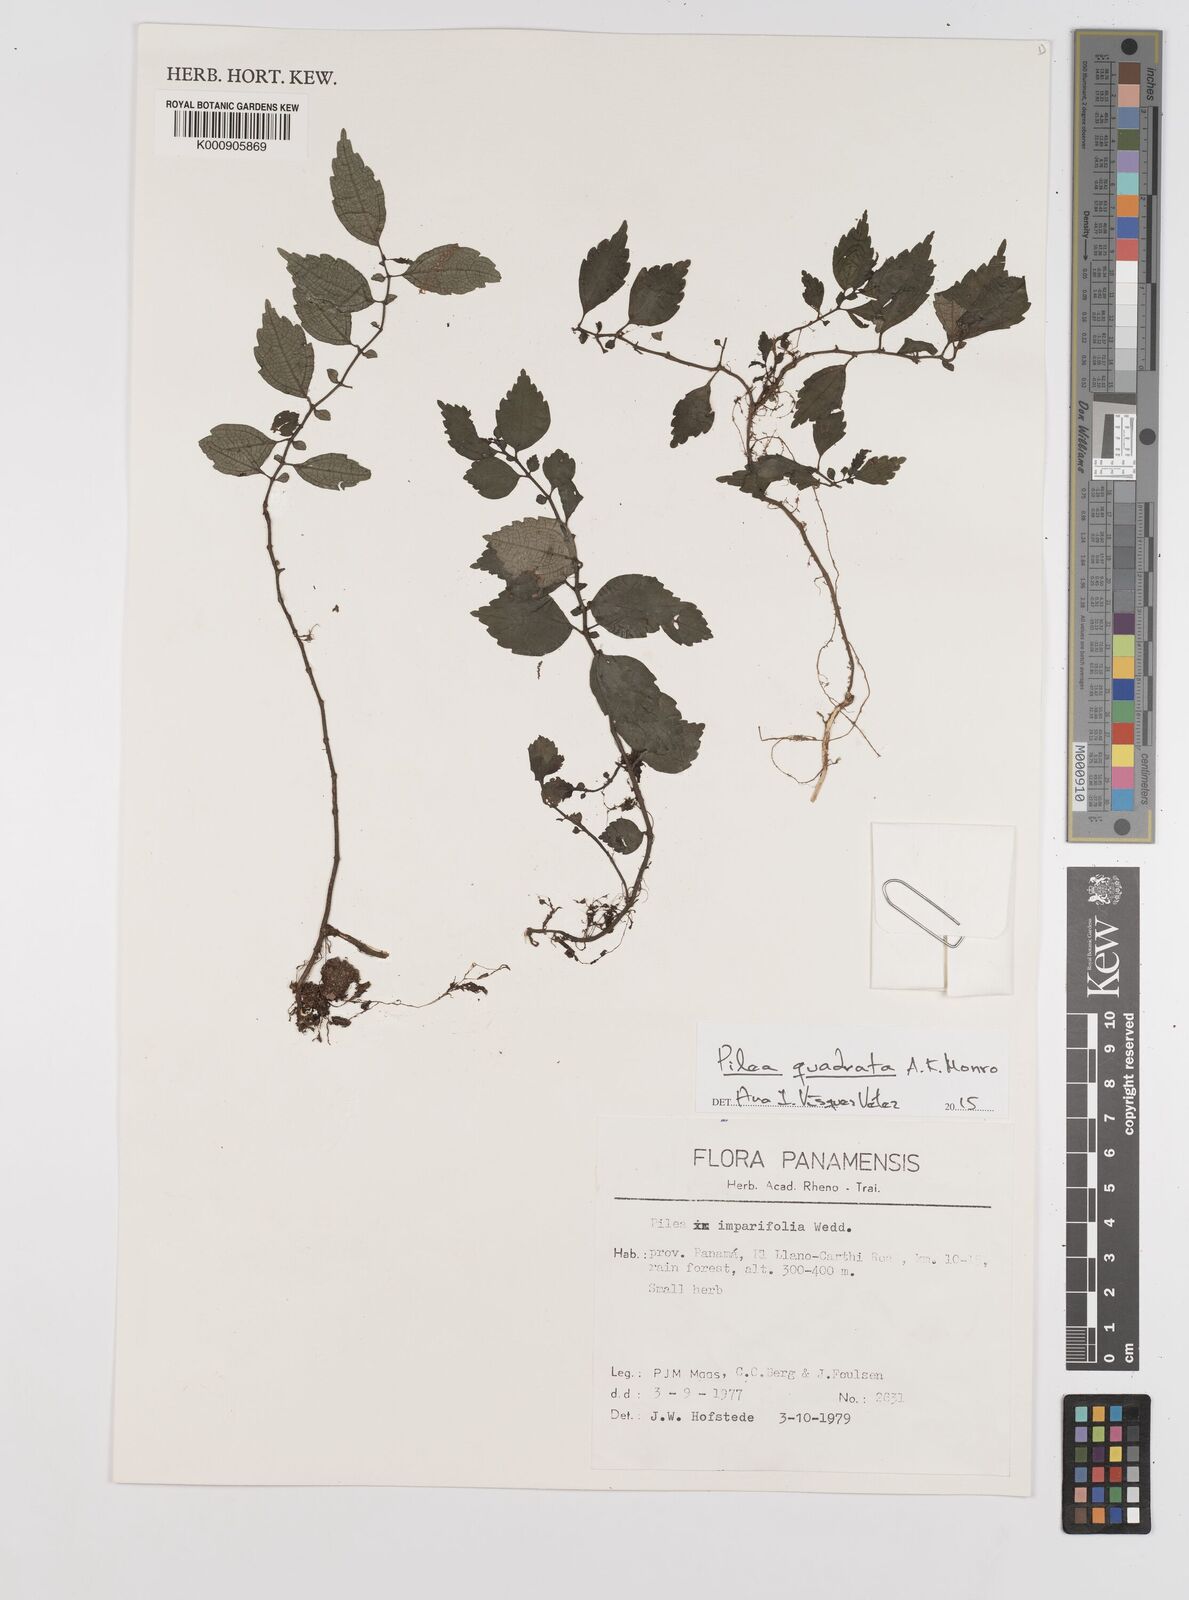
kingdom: Plantae
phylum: Tracheophyta
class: Magnoliopsida
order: Rosales
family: Urticaceae
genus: Pilea
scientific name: Pilea quadrata
